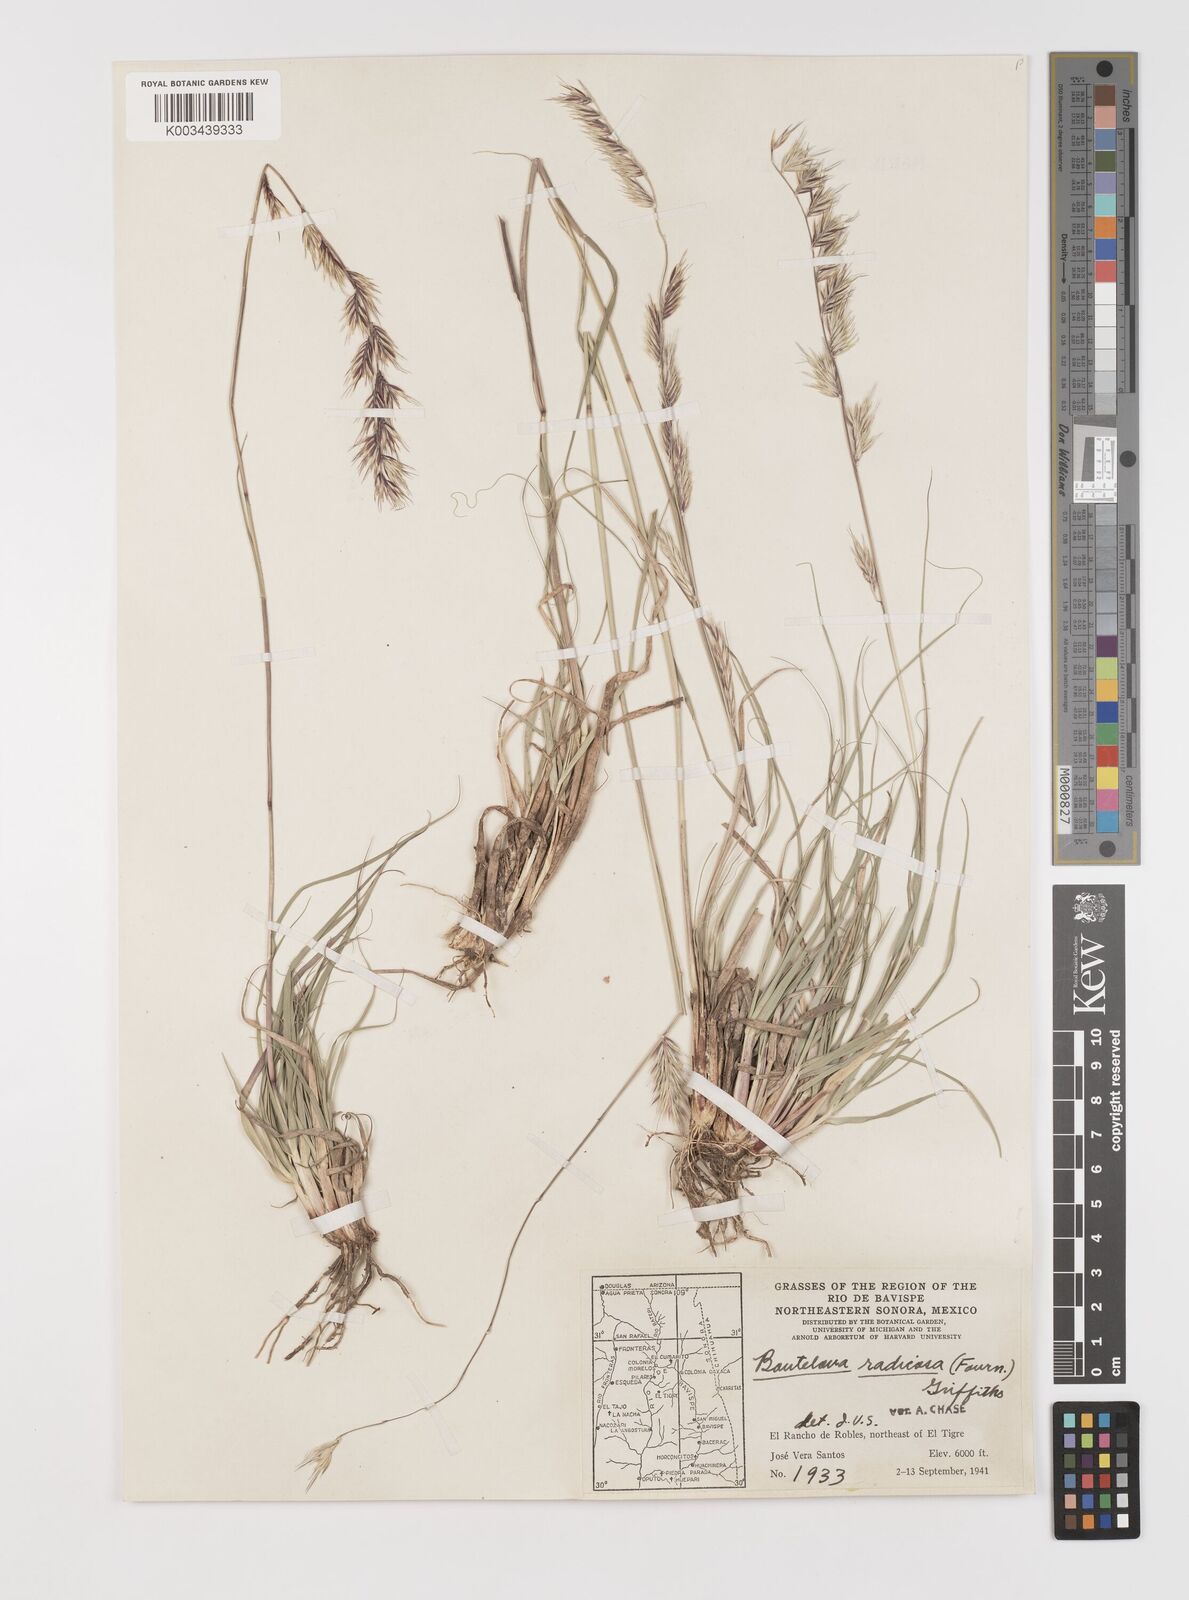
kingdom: Plantae
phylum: Tracheophyta
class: Liliopsida
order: Poales
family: Poaceae
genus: Bouteloua
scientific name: Bouteloua radicosa
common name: Purple grama
